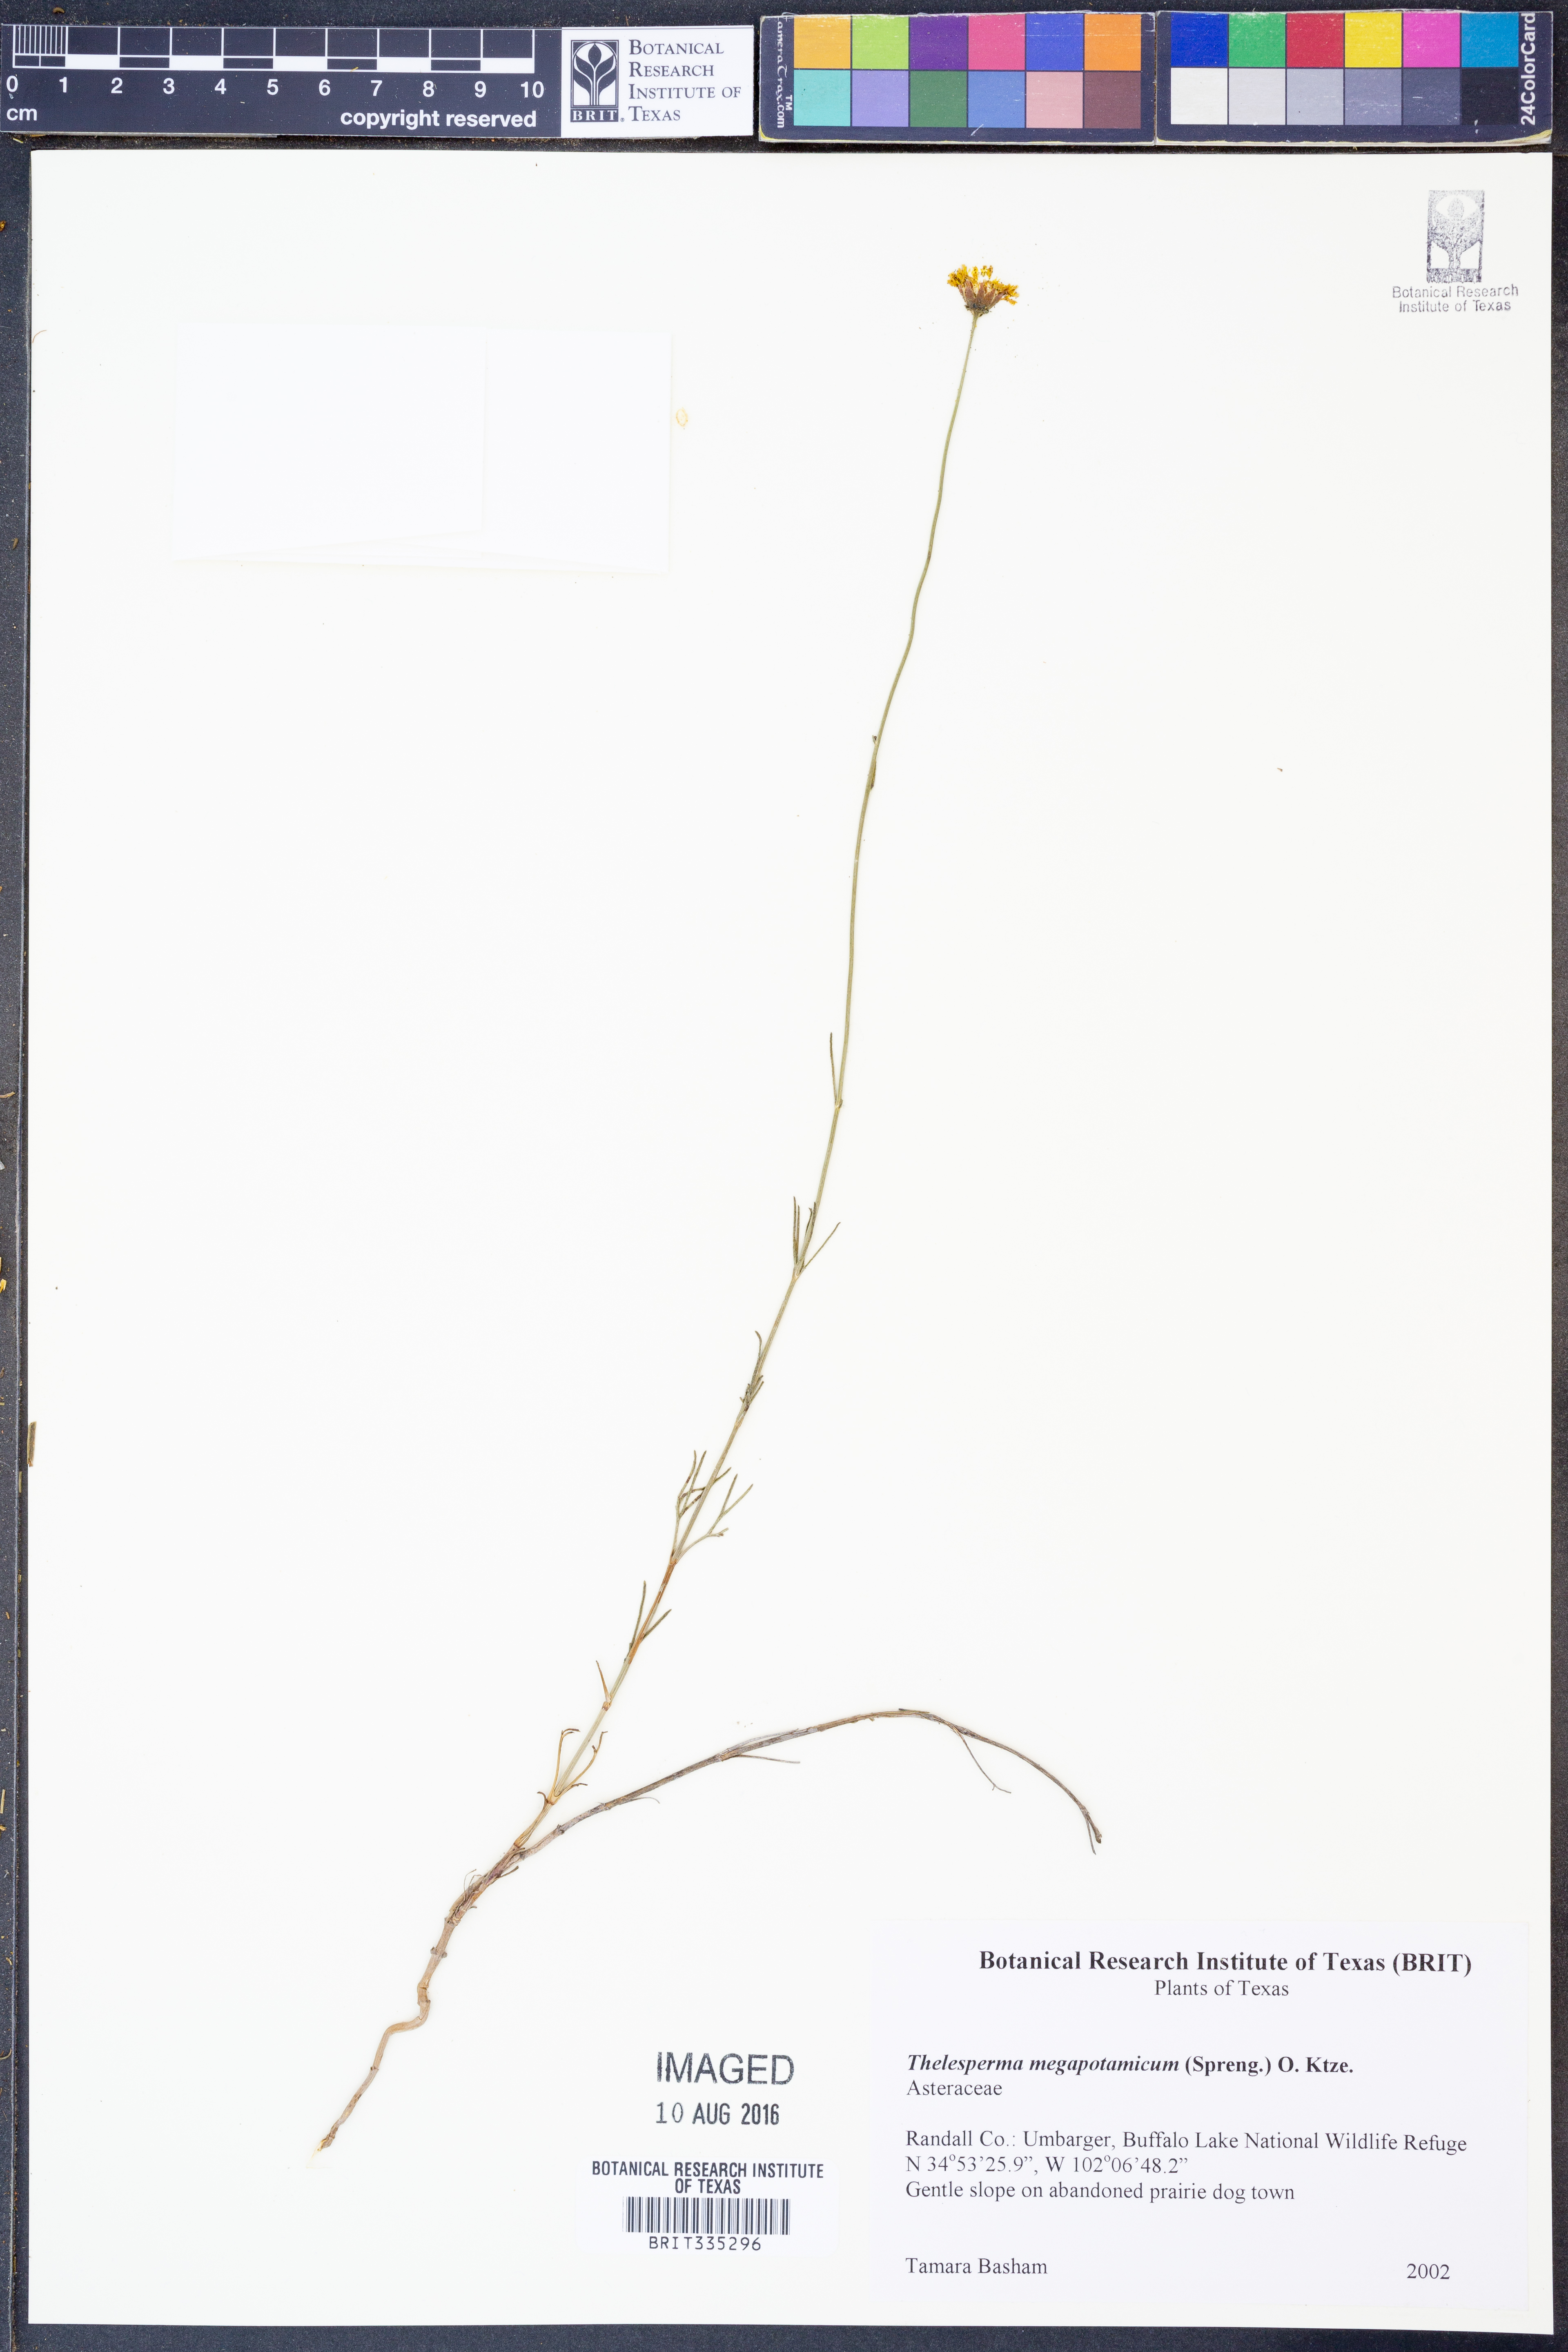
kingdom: Plantae
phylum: Tracheophyta
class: Magnoliopsida
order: Asterales
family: Asteraceae
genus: Thelesperma
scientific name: Thelesperma megapotamicum
